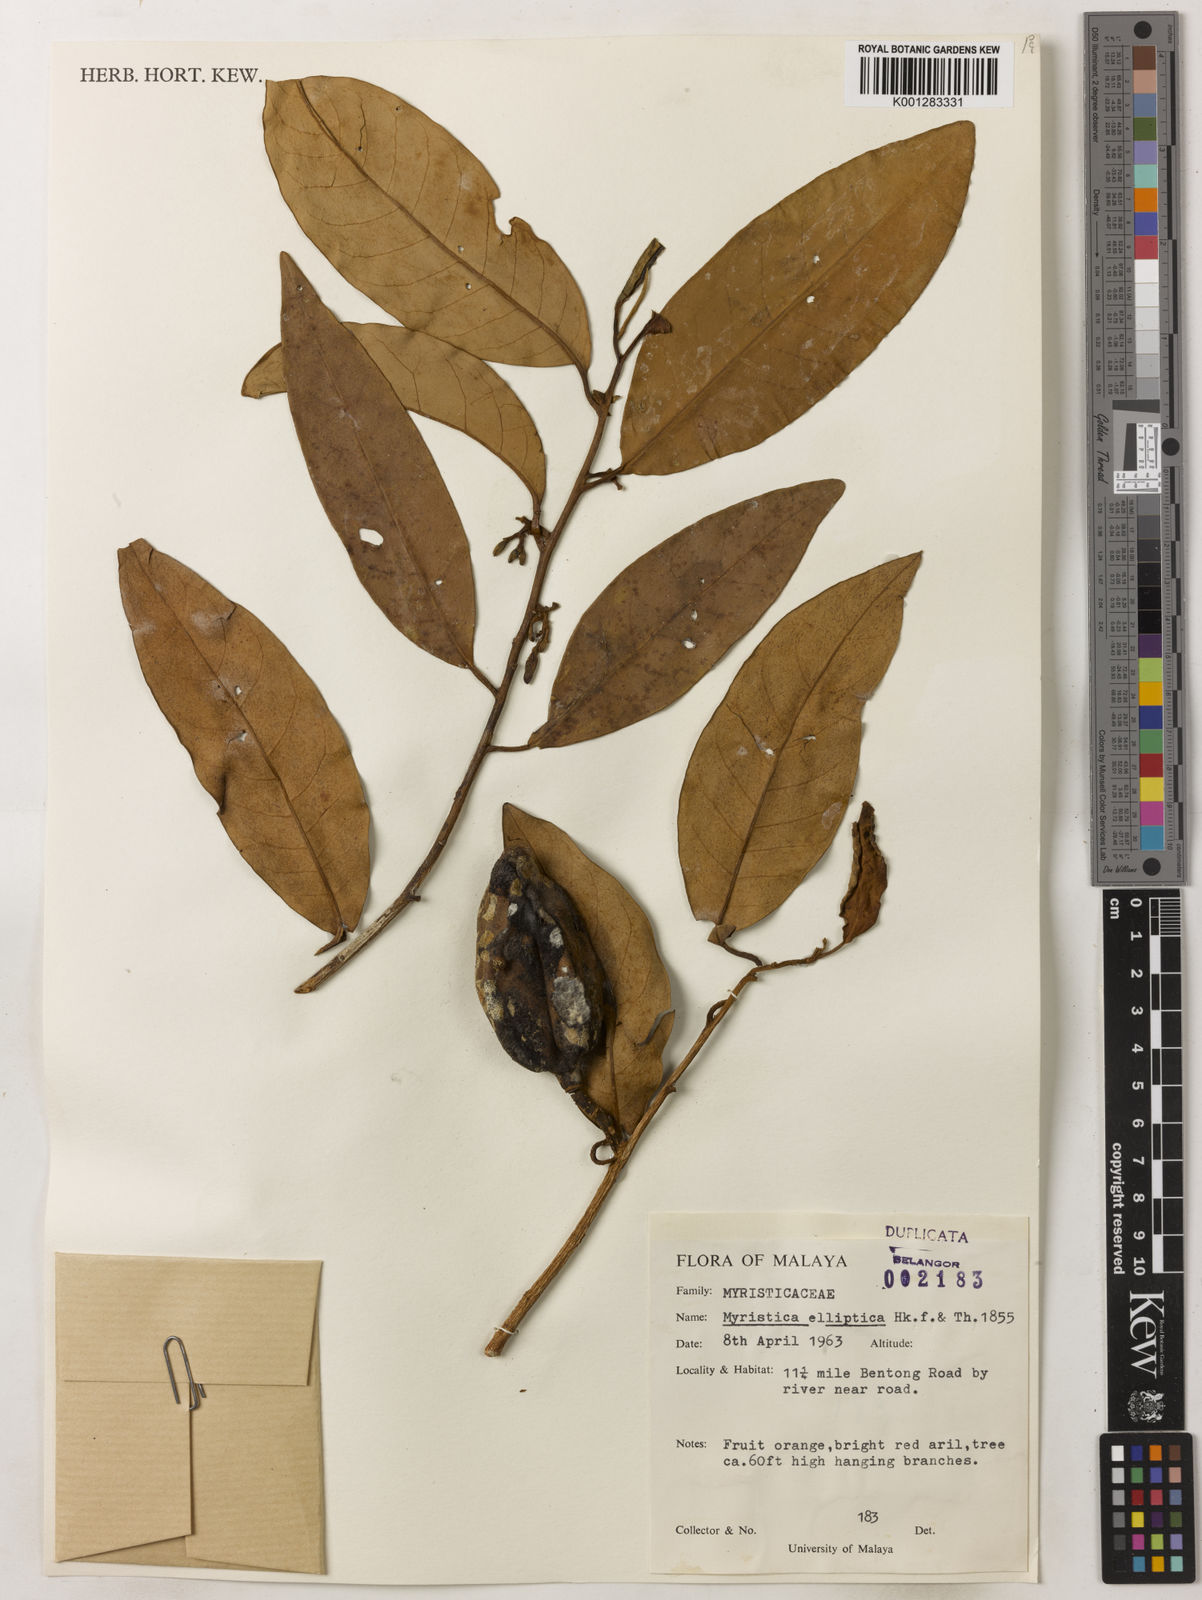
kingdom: Plantae
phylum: Tracheophyta
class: Magnoliopsida
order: Magnoliales
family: Myristicaceae
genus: Myristica
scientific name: Myristica elliptica
